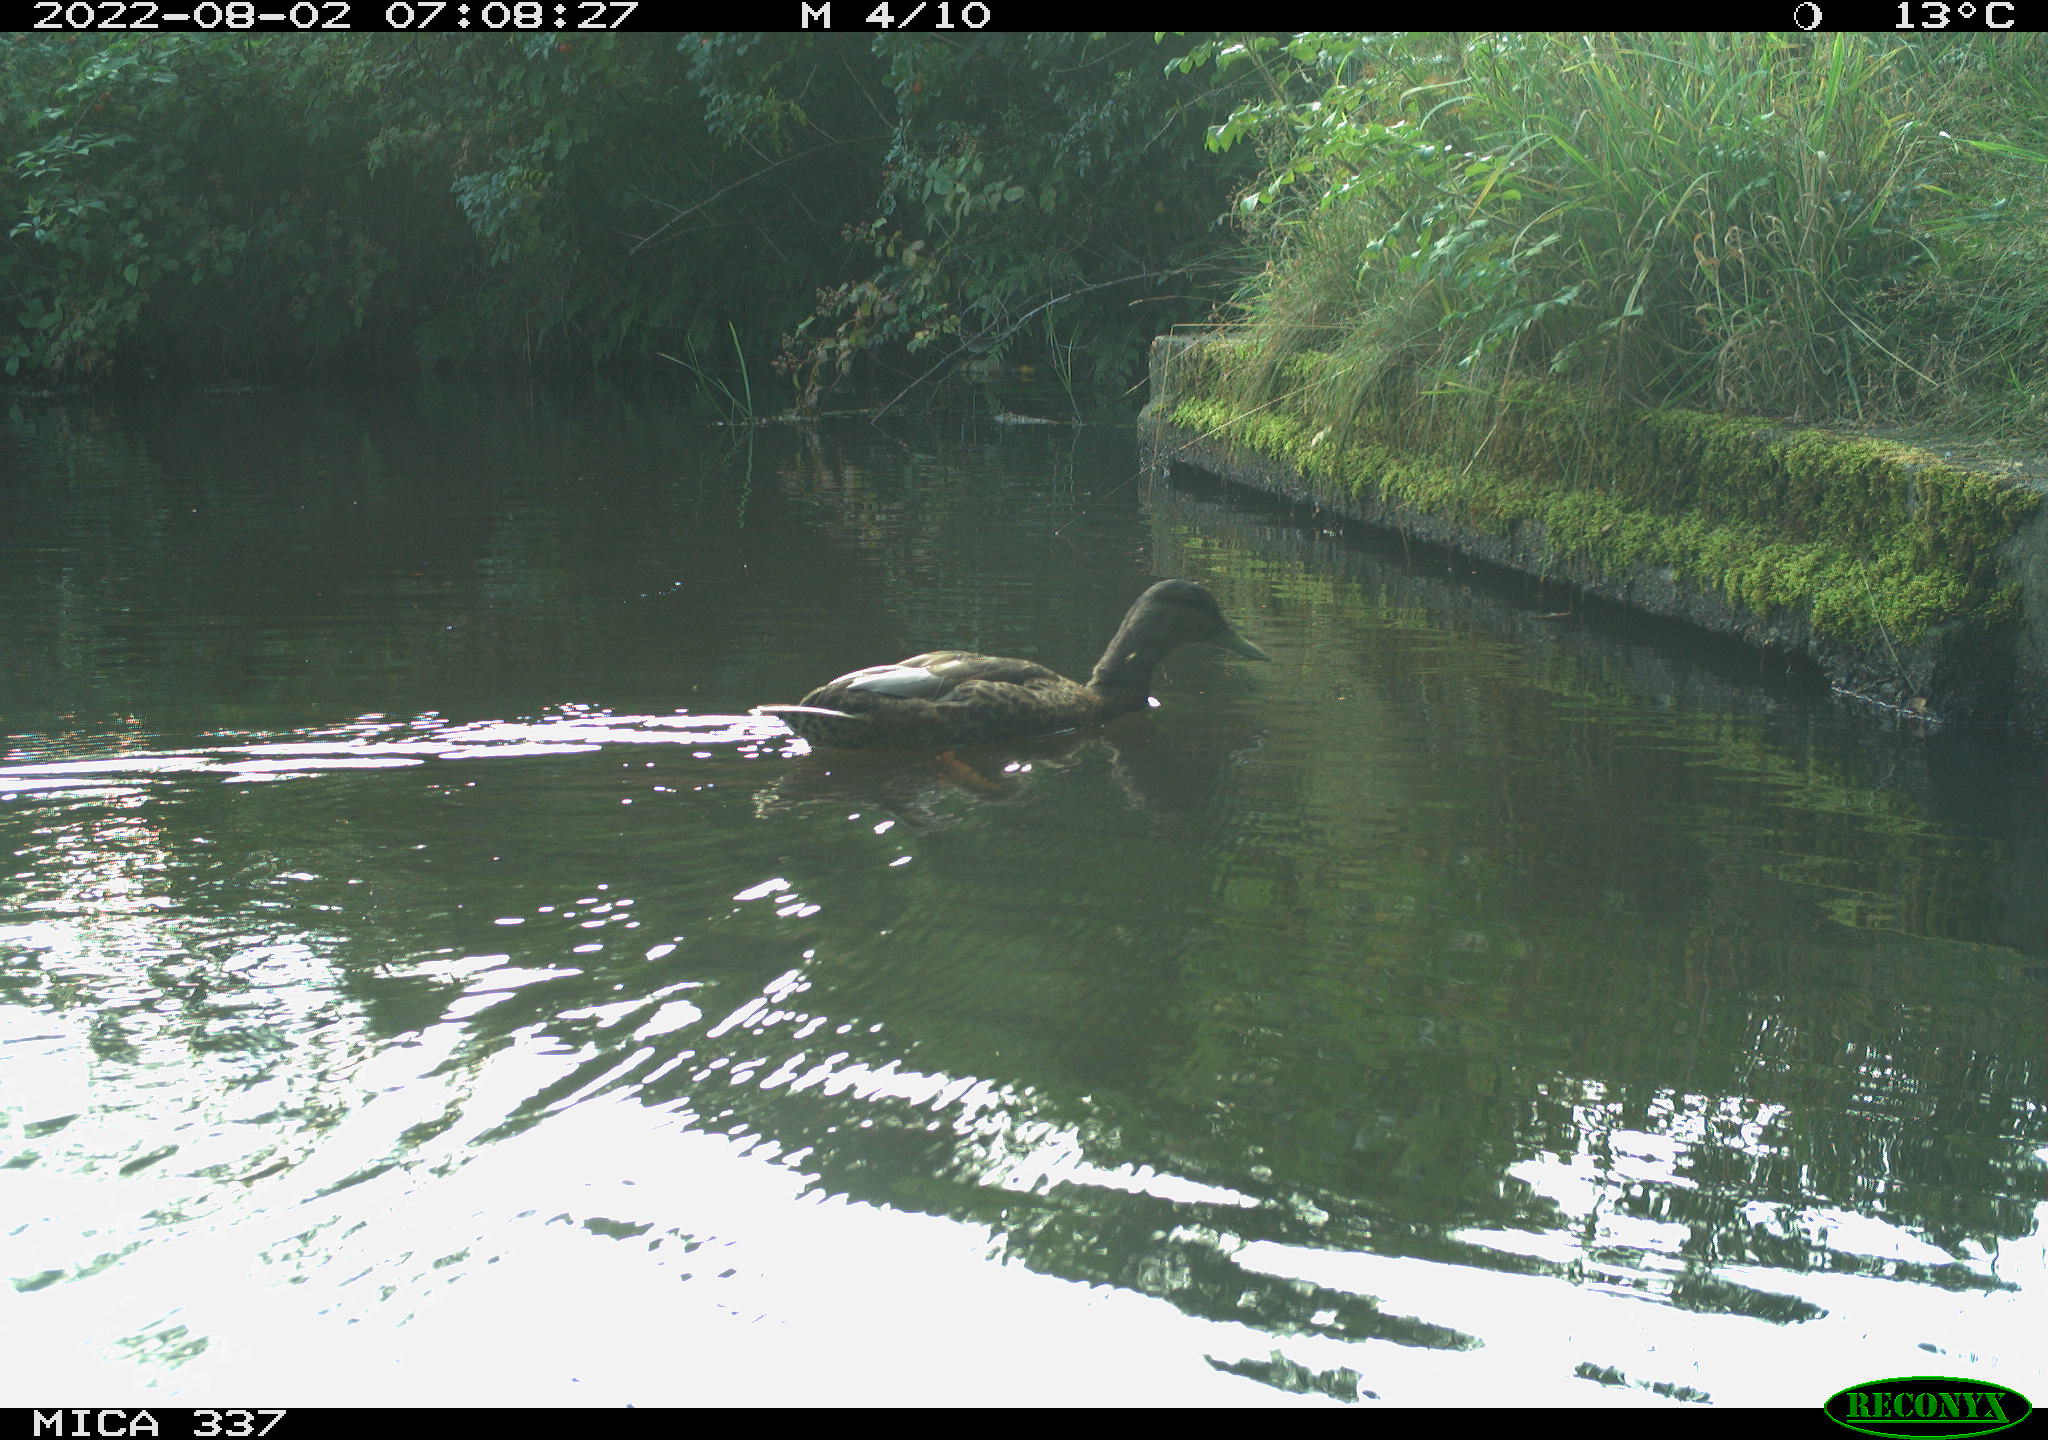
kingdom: Animalia
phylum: Chordata
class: Aves
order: Anseriformes
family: Anatidae
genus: Anas
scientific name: Anas platyrhynchos
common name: Mallard
